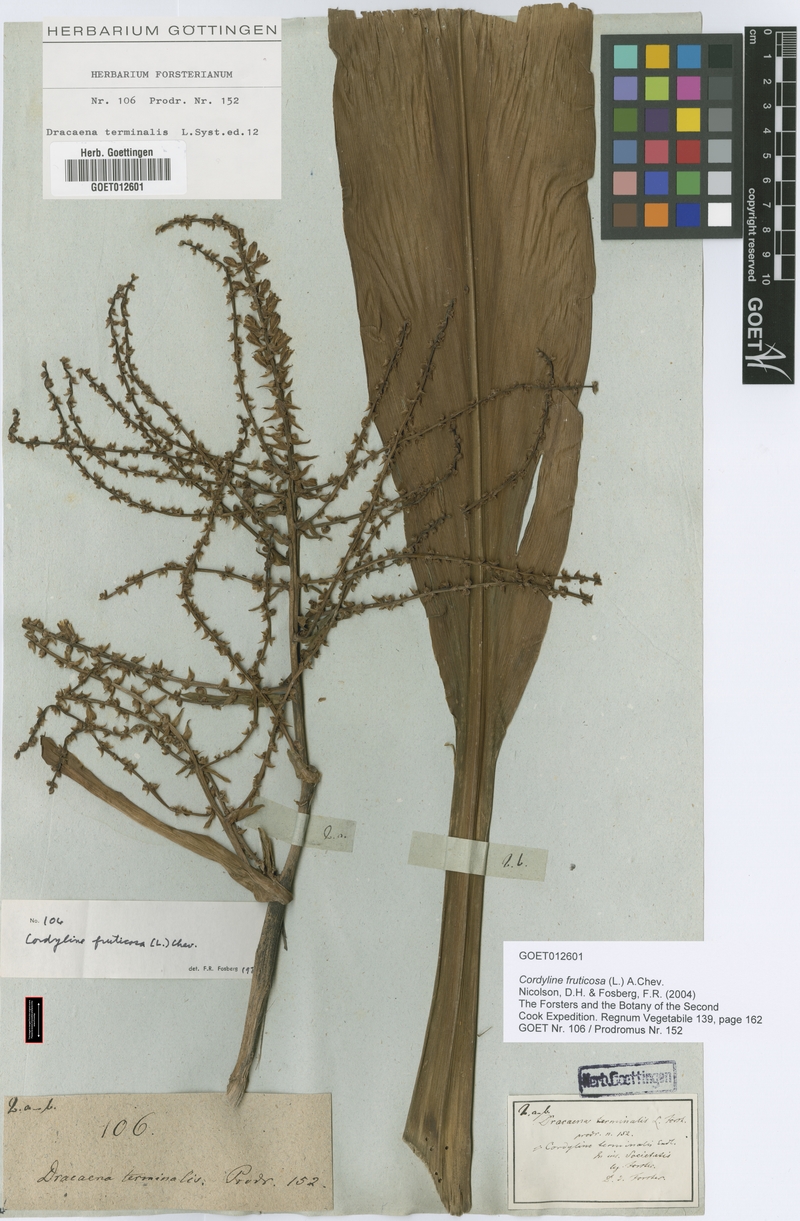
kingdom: Plantae
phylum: Tracheophyta
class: Liliopsida
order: Asparagales
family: Asparagaceae
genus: Cordyline
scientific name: Cordyline fruticosa
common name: Good-luck-plant
